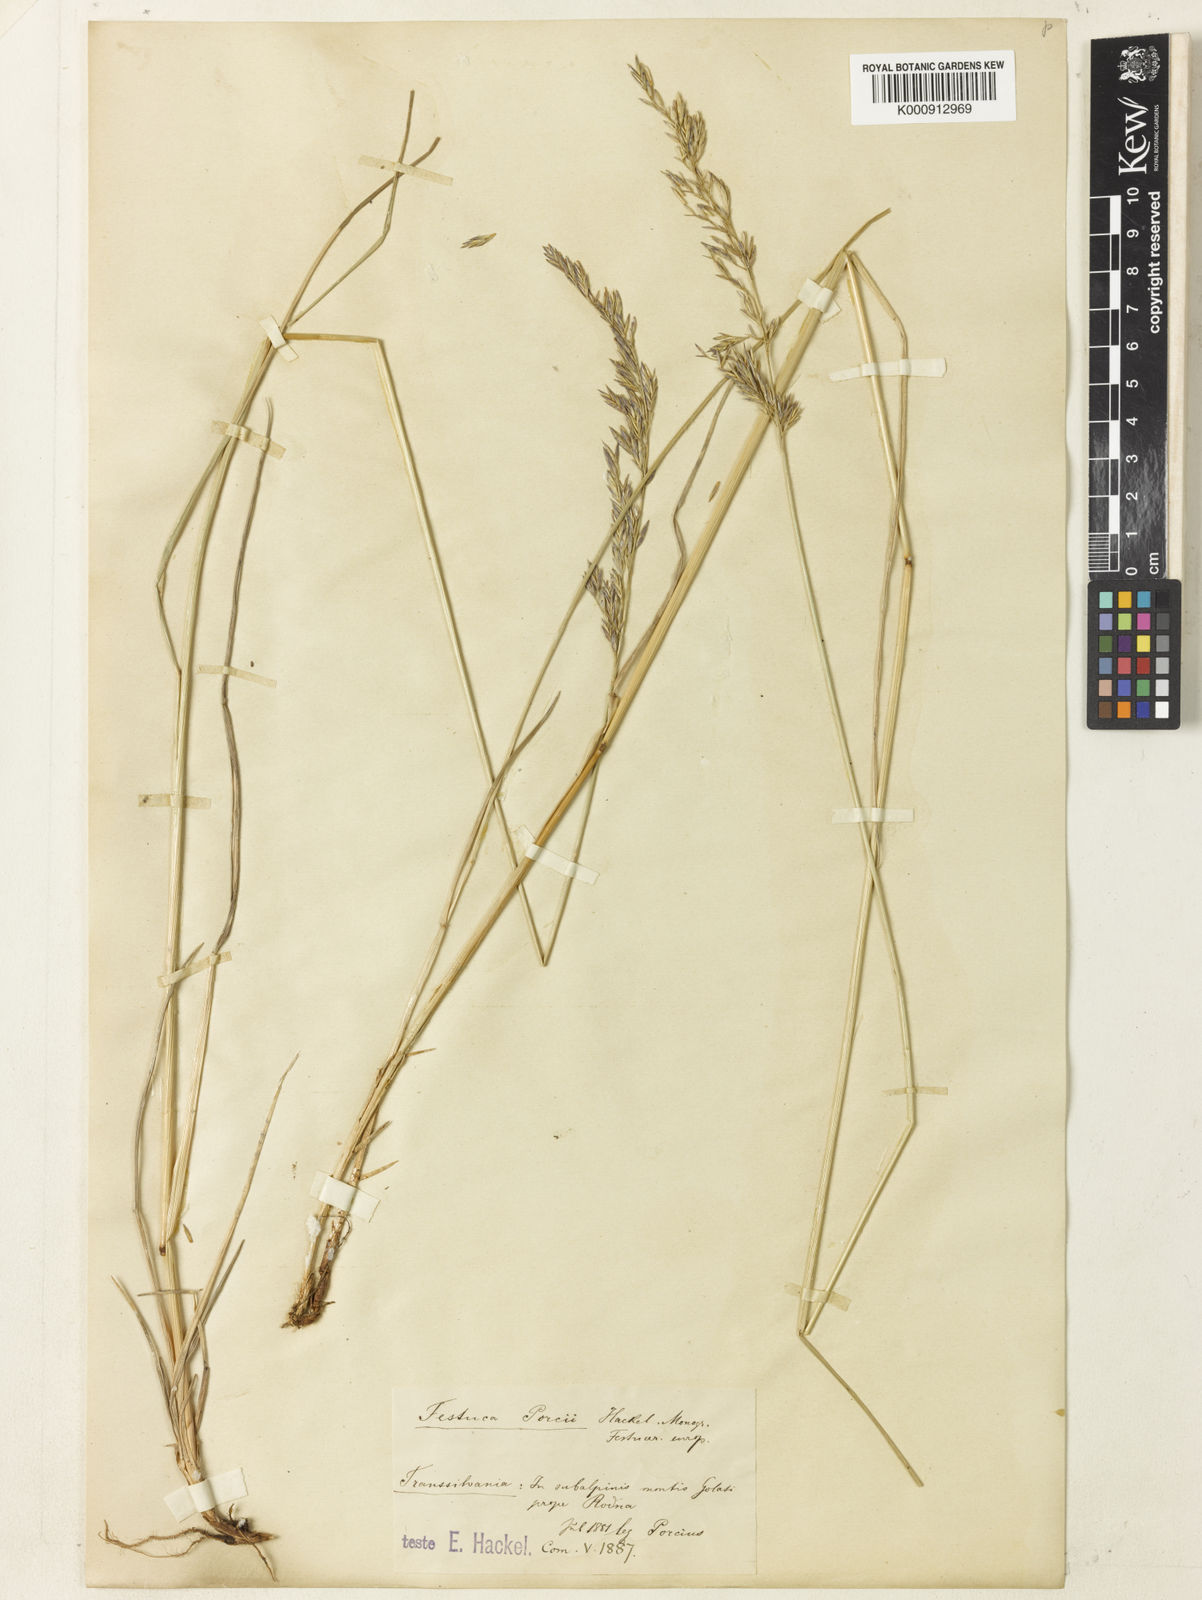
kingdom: Plantae
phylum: Tracheophyta
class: Liliopsida
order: Poales
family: Poaceae
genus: Festuca
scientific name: Festuca porcii
